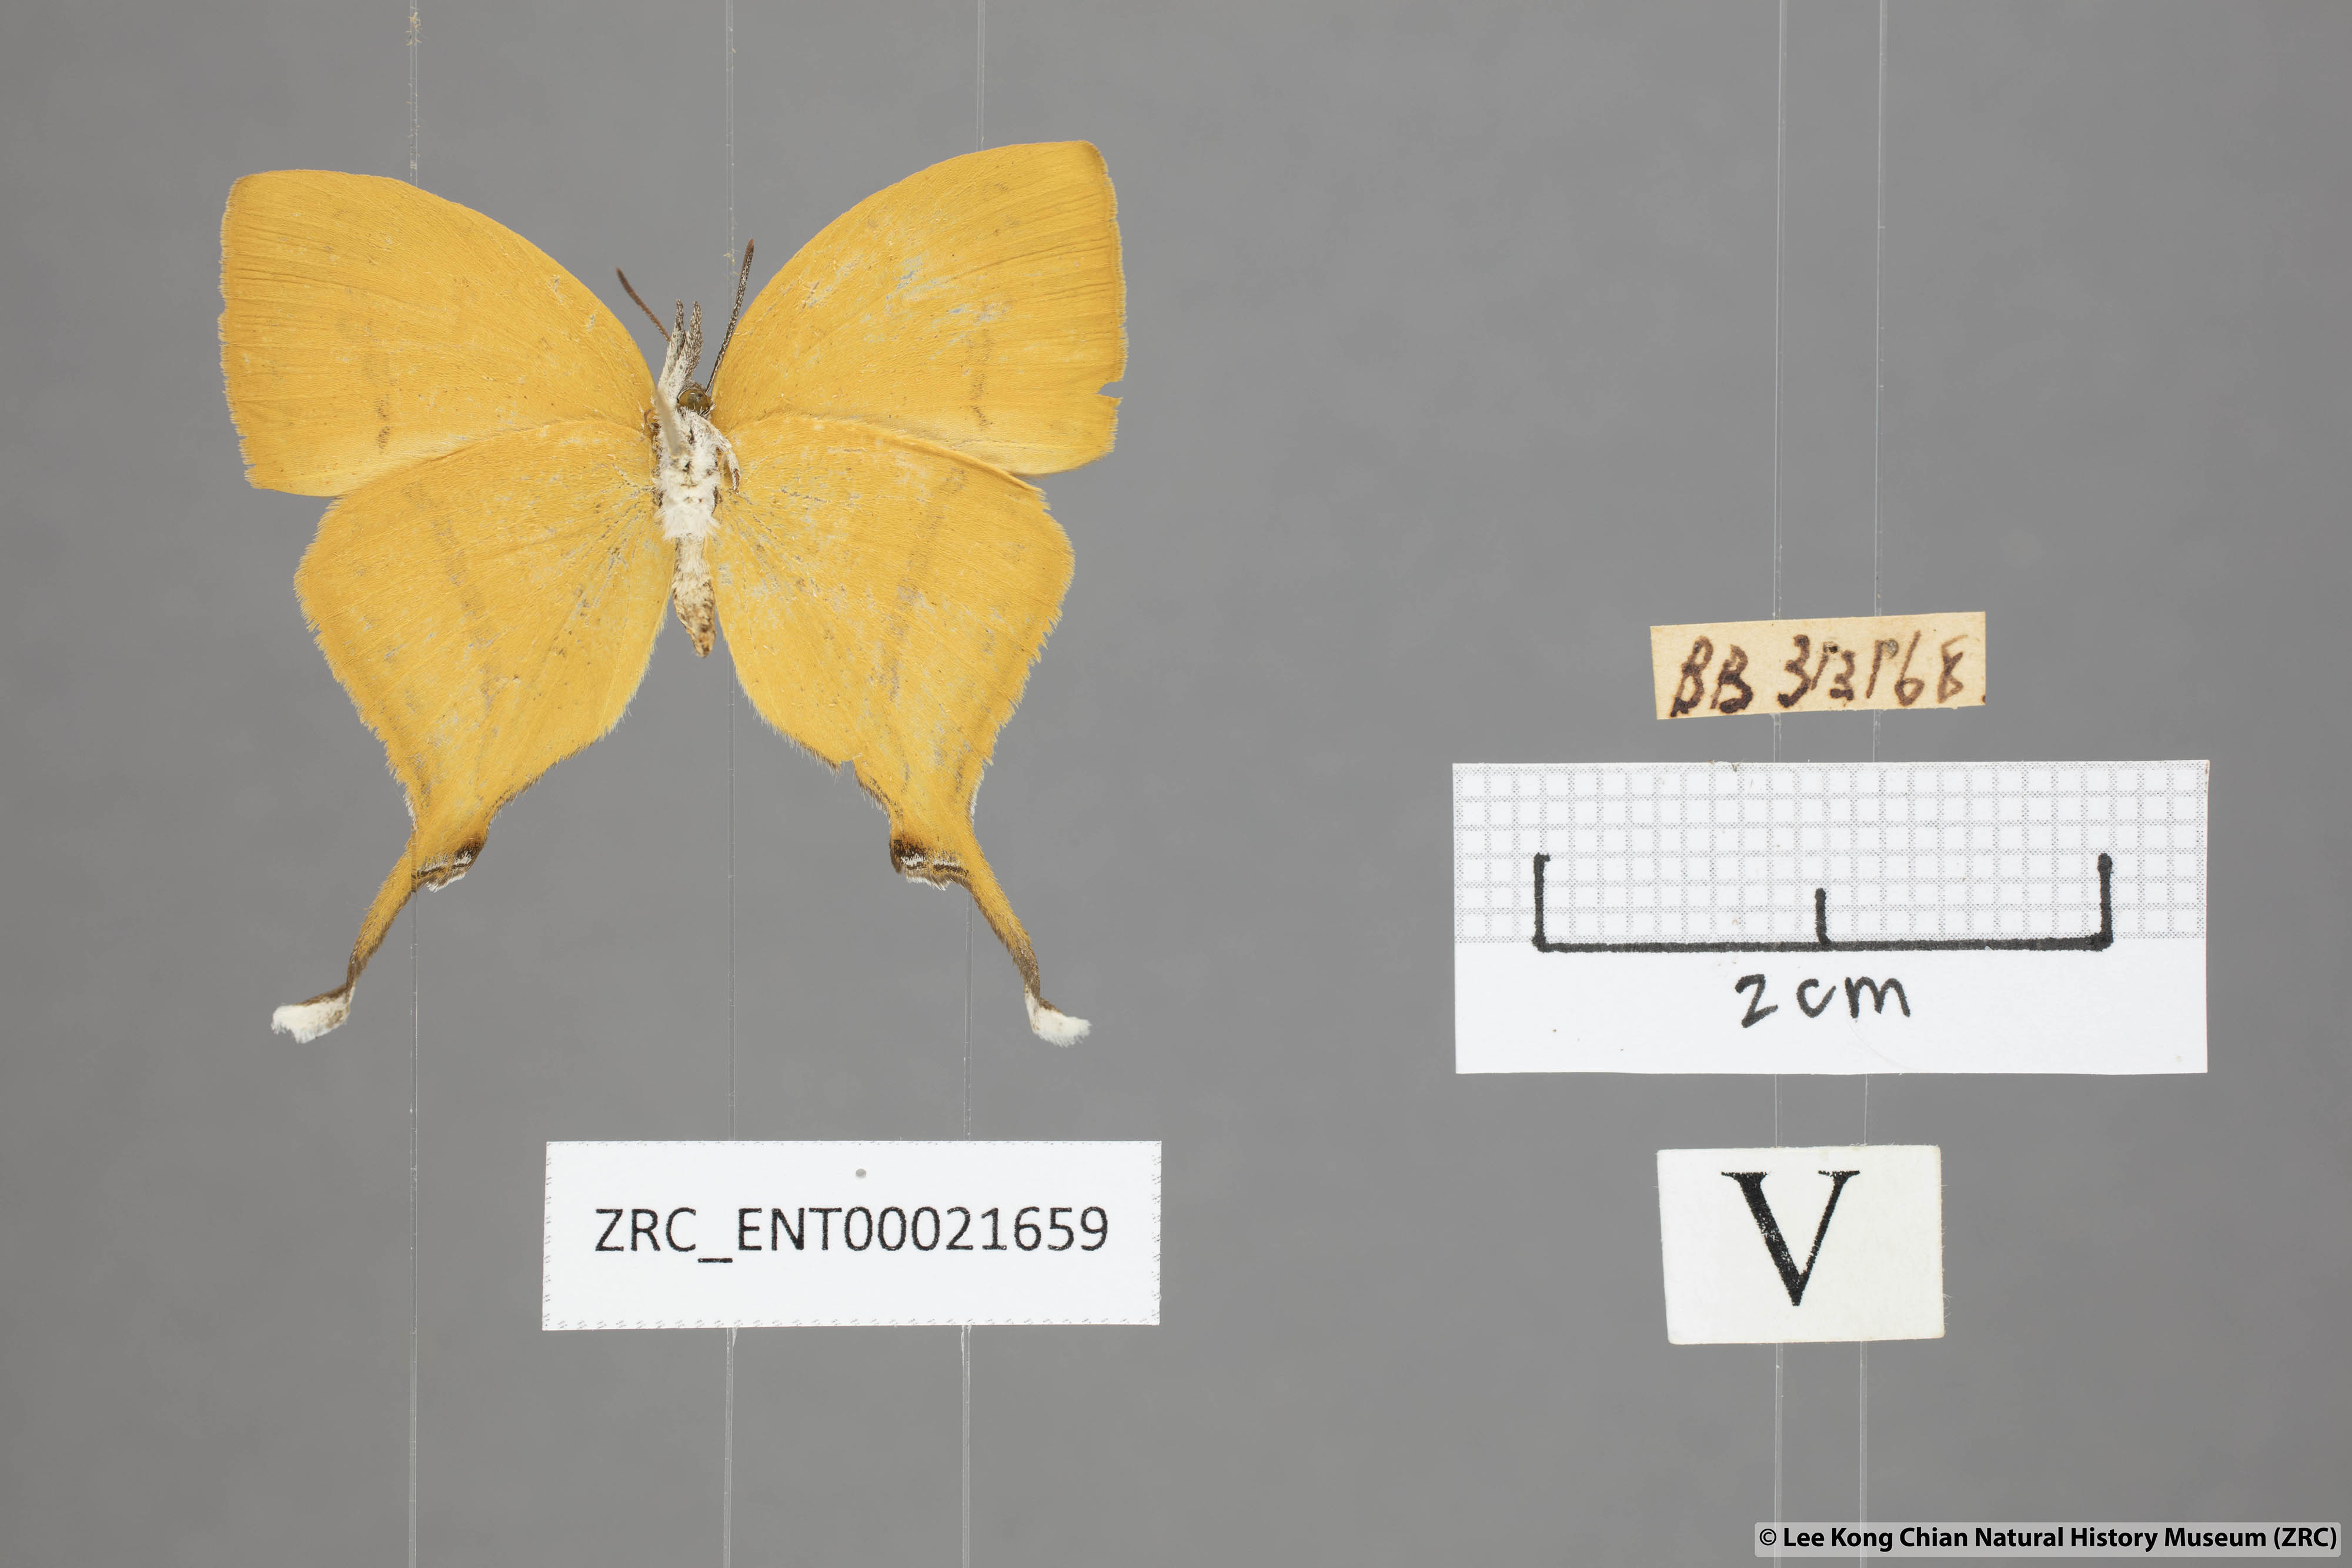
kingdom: Animalia
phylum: Arthropoda
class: Insecta
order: Lepidoptera
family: Lycaenidae
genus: Loxura
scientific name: Loxura atymnus
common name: Common yamfly
